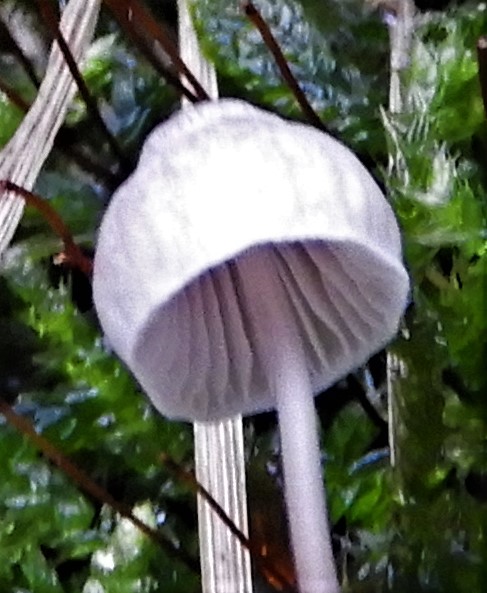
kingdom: Fungi
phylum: Basidiomycota
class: Agaricomycetes
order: Agaricales
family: Mycenaceae
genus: Mycena
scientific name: Mycena
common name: huesvamp
